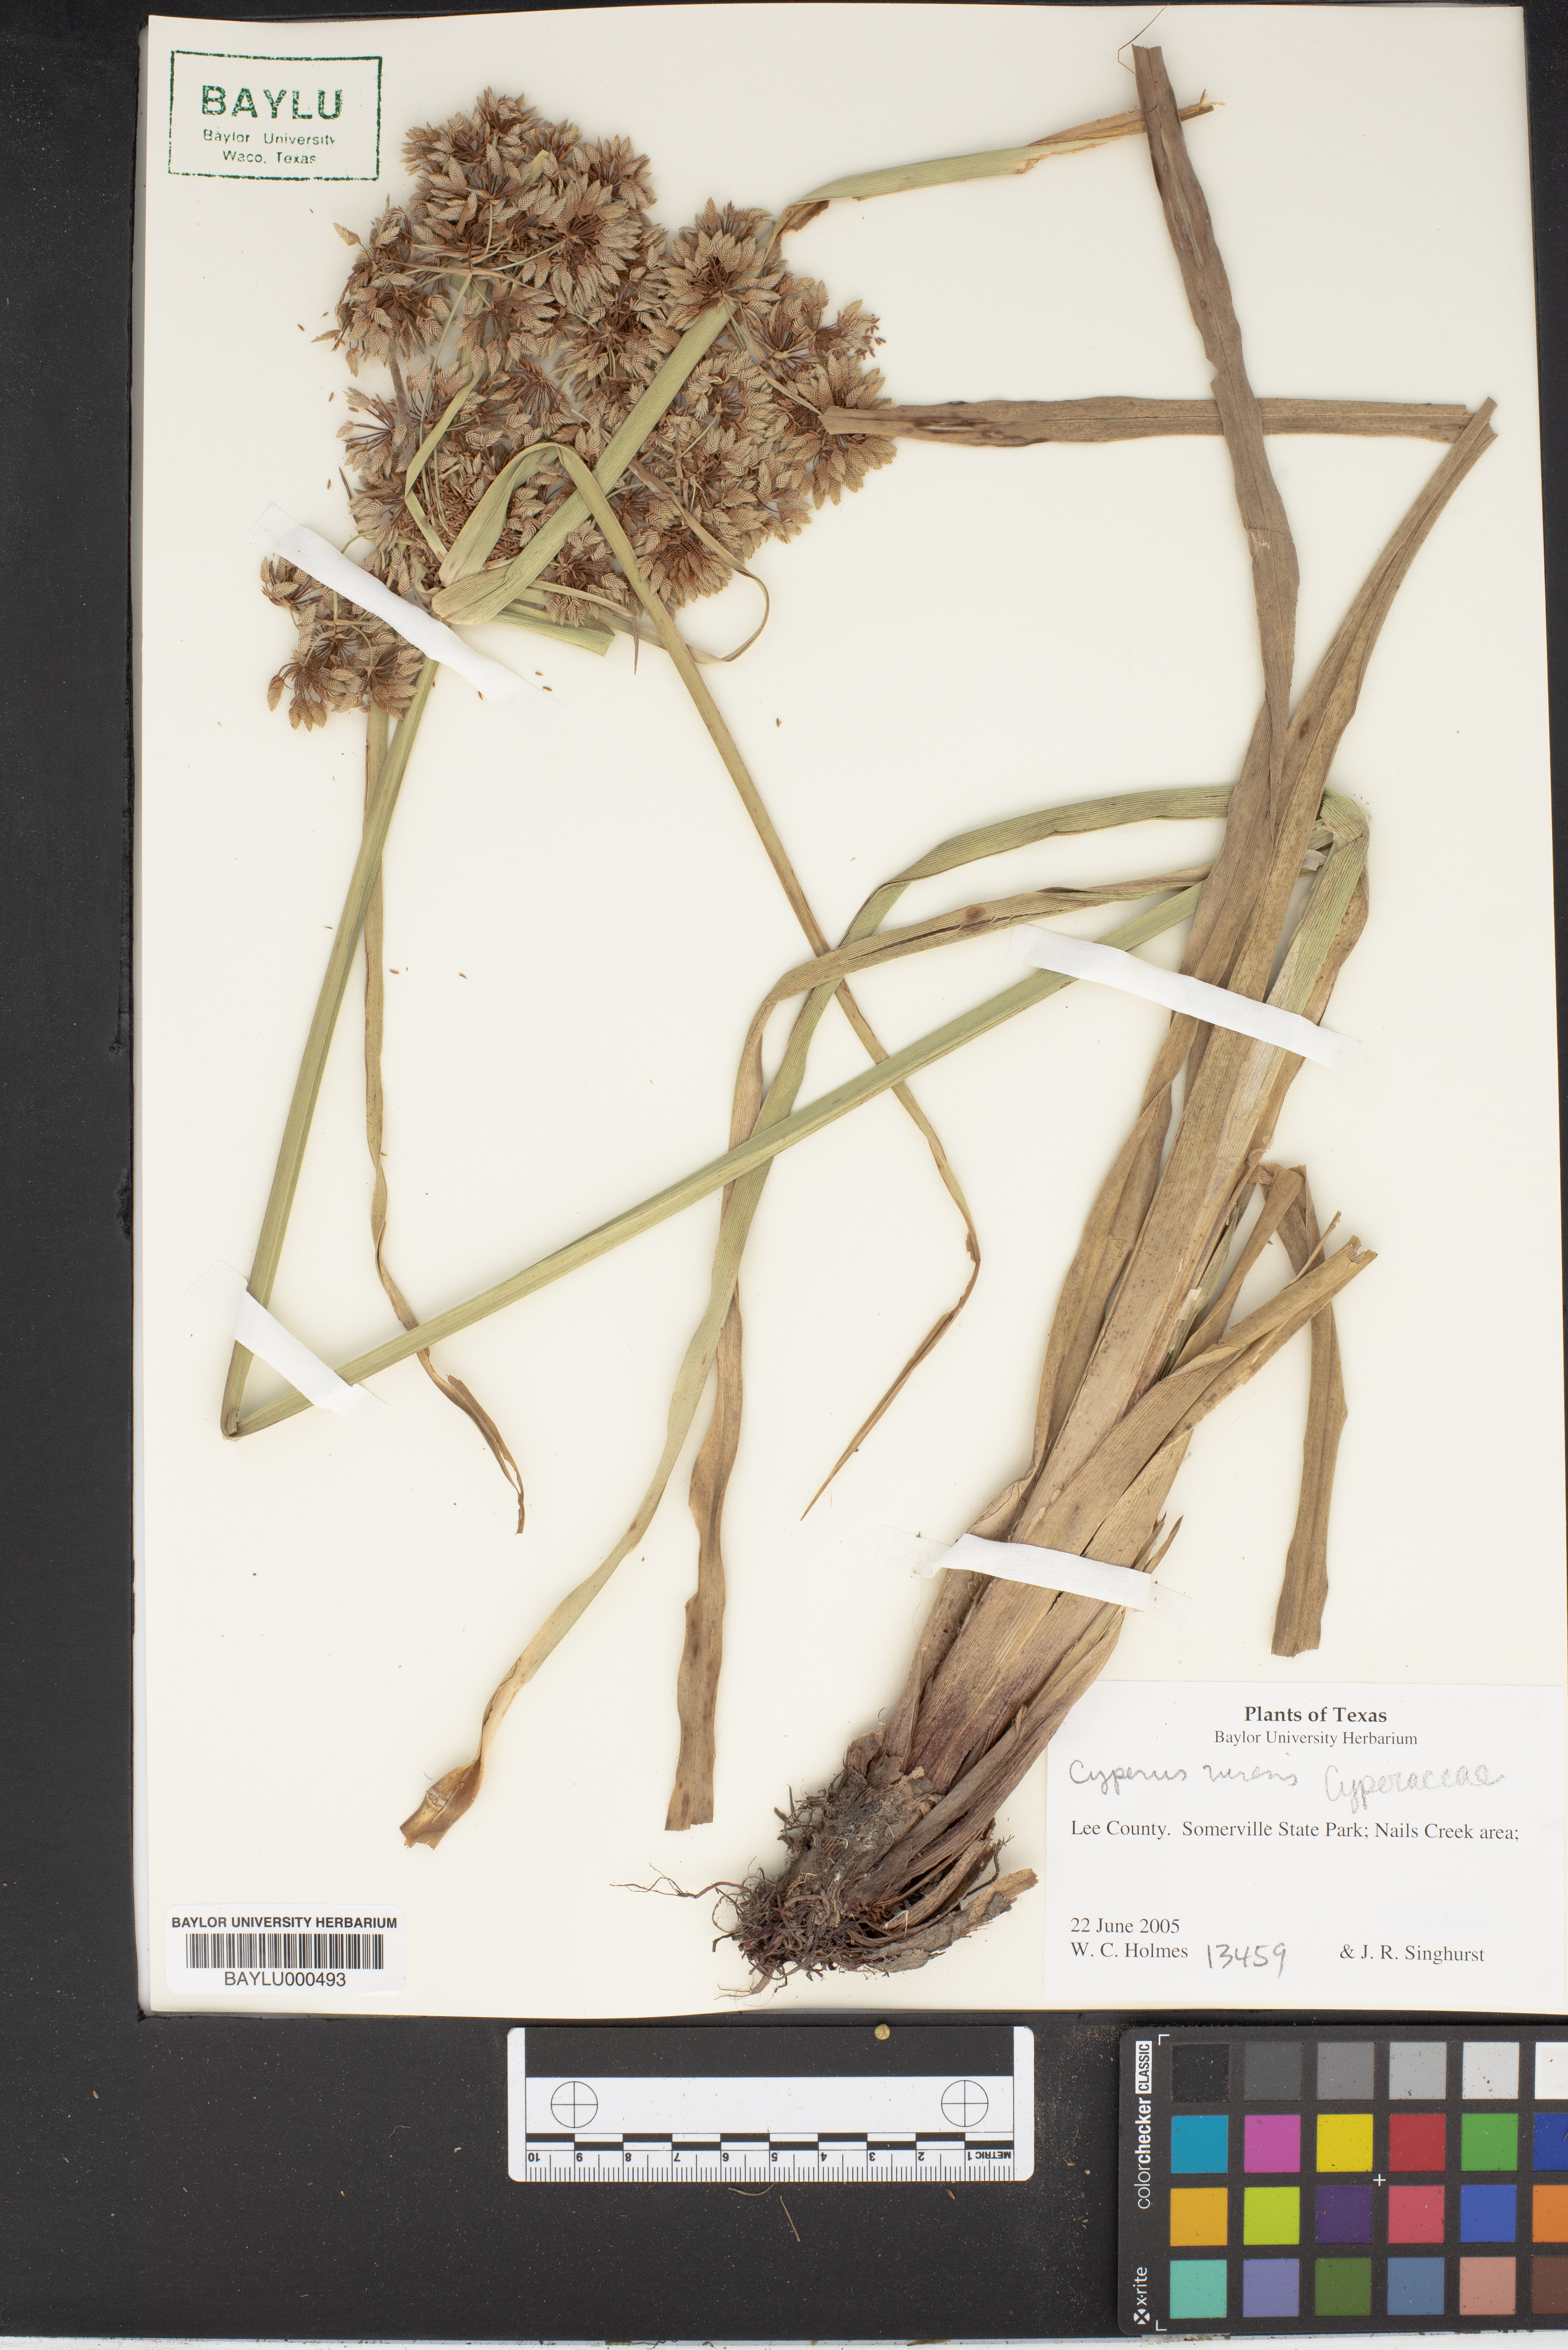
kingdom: Plantae
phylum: Tracheophyta
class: Liliopsida
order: Poales
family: Cyperaceae
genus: Cyperus
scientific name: Cyperus niveus
